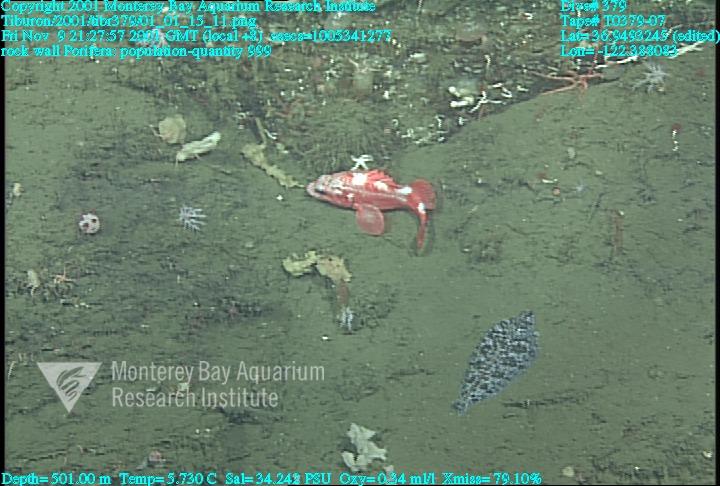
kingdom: Animalia
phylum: Porifera
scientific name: Porifera
